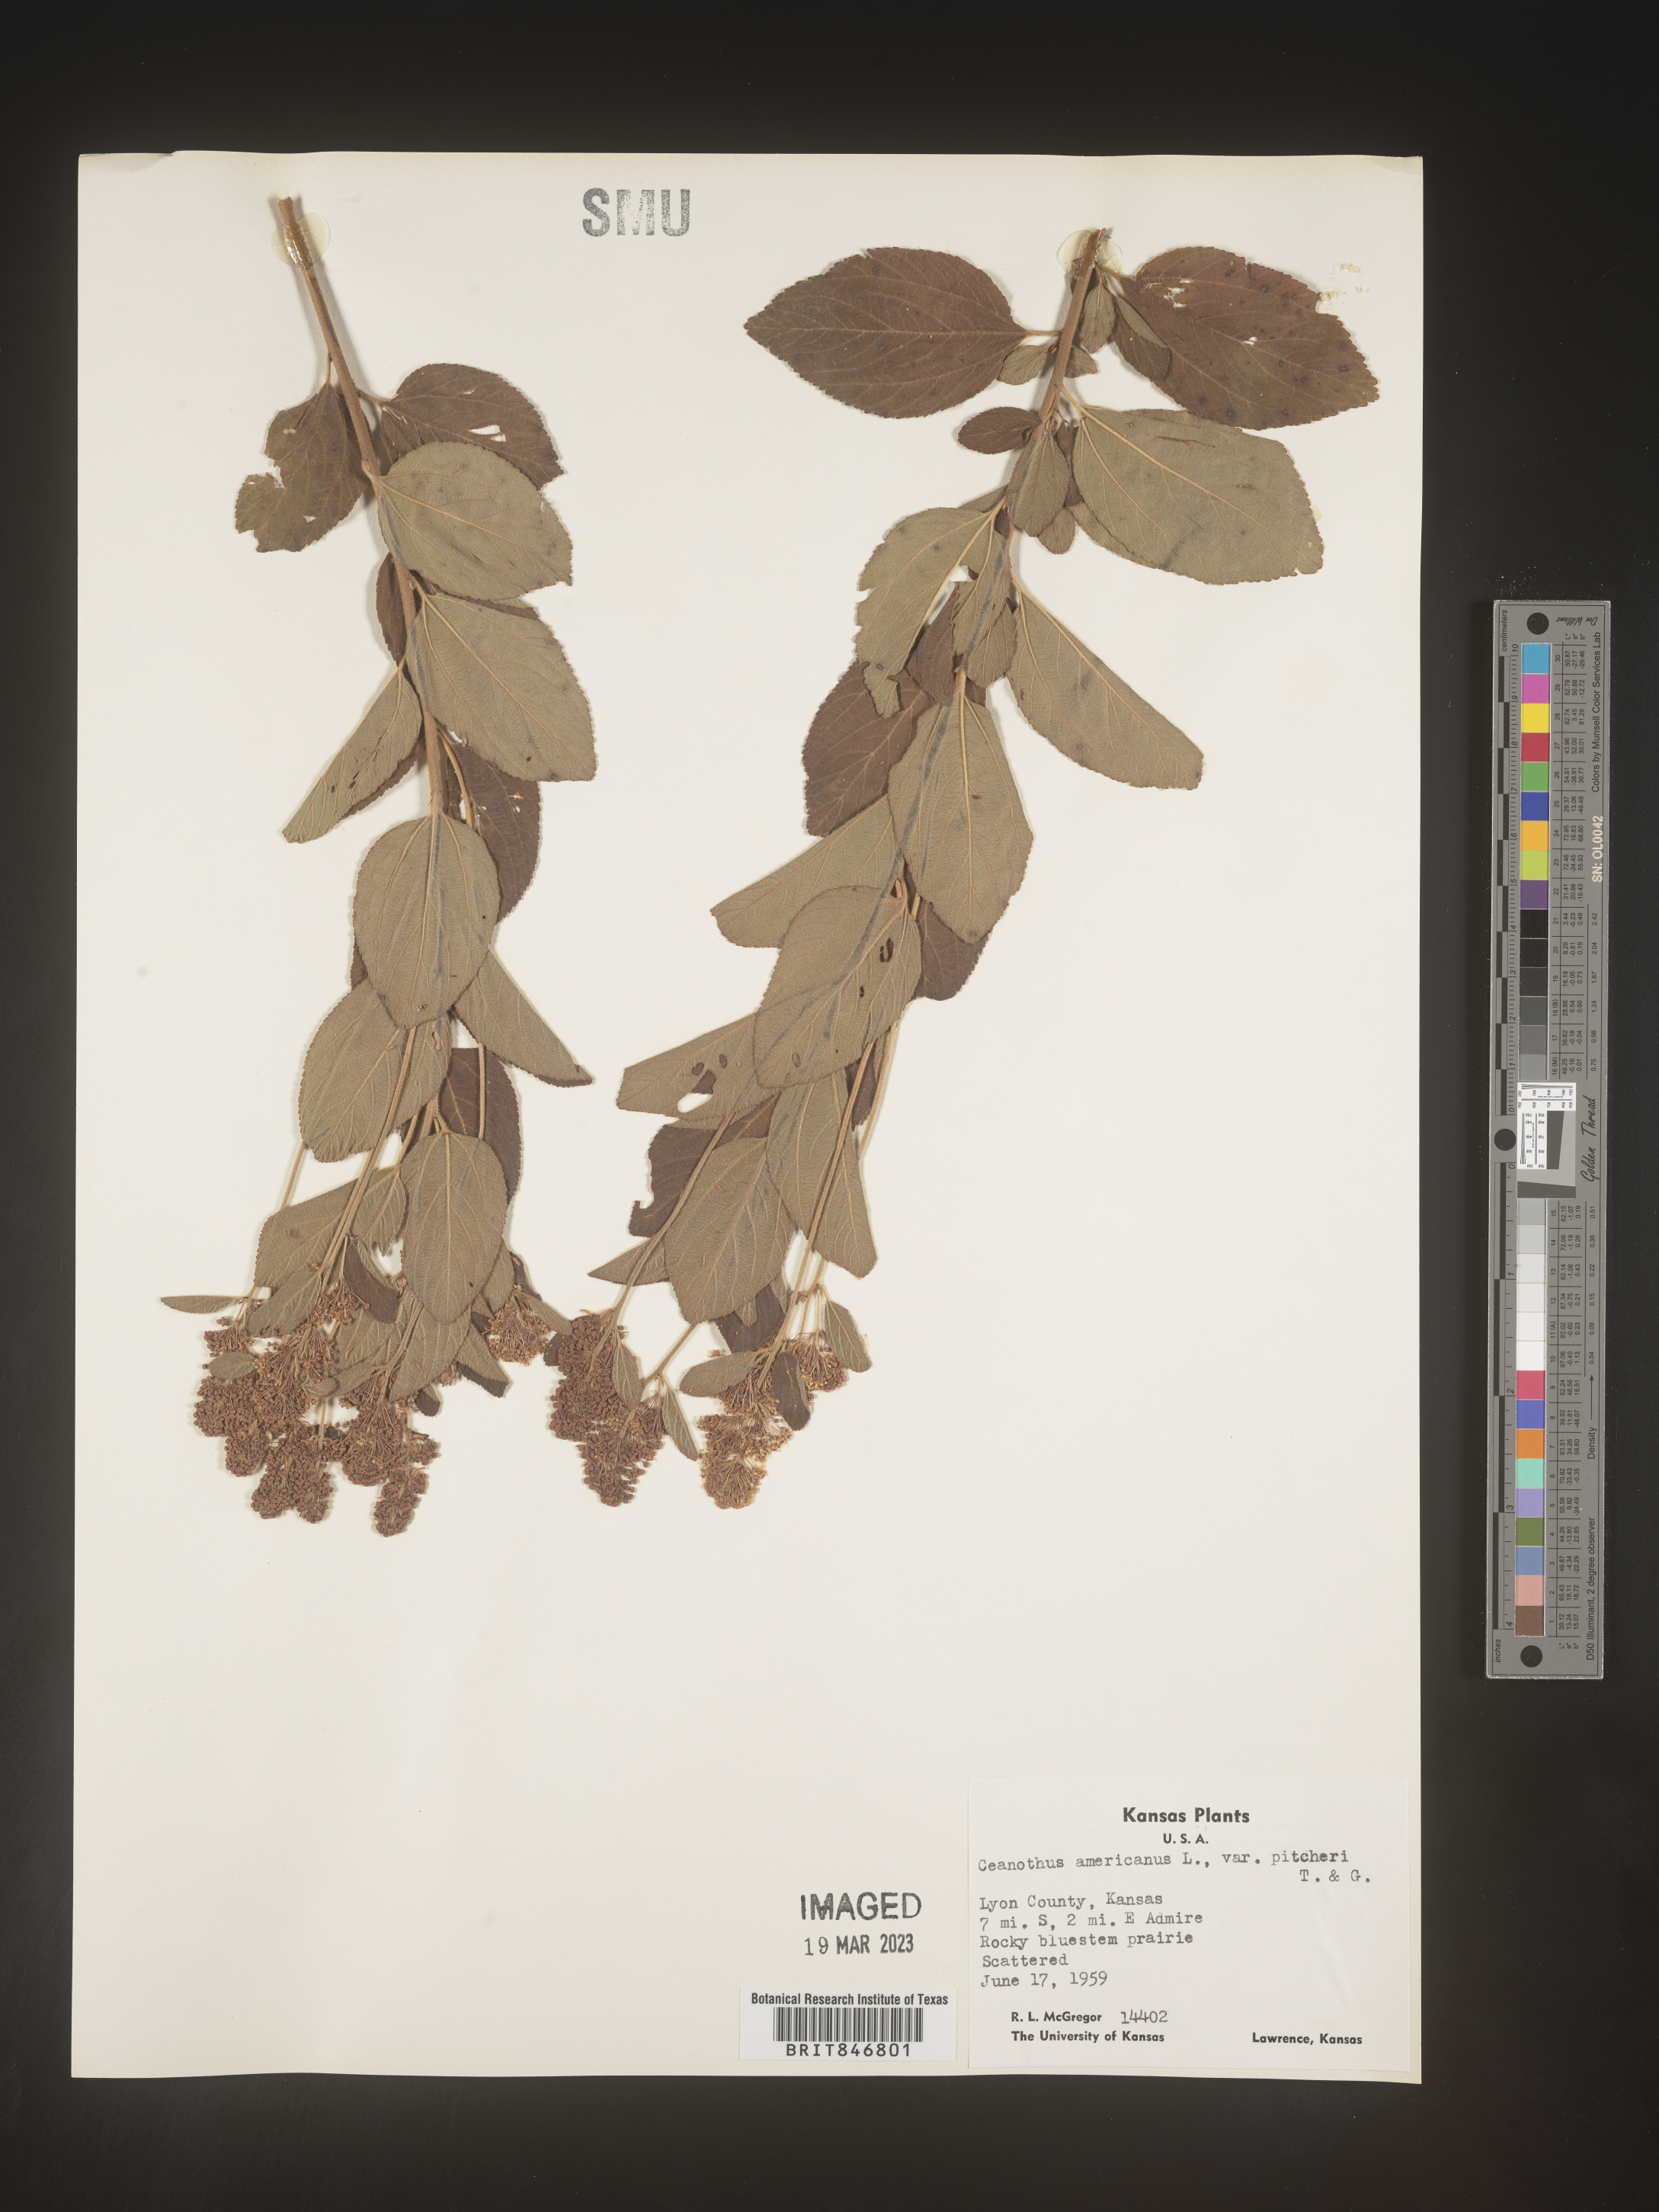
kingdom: Plantae
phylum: Tracheophyta
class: Magnoliopsida
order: Rosales
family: Rhamnaceae
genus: Ceanothus
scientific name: Ceanothus americanus
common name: Redroot
